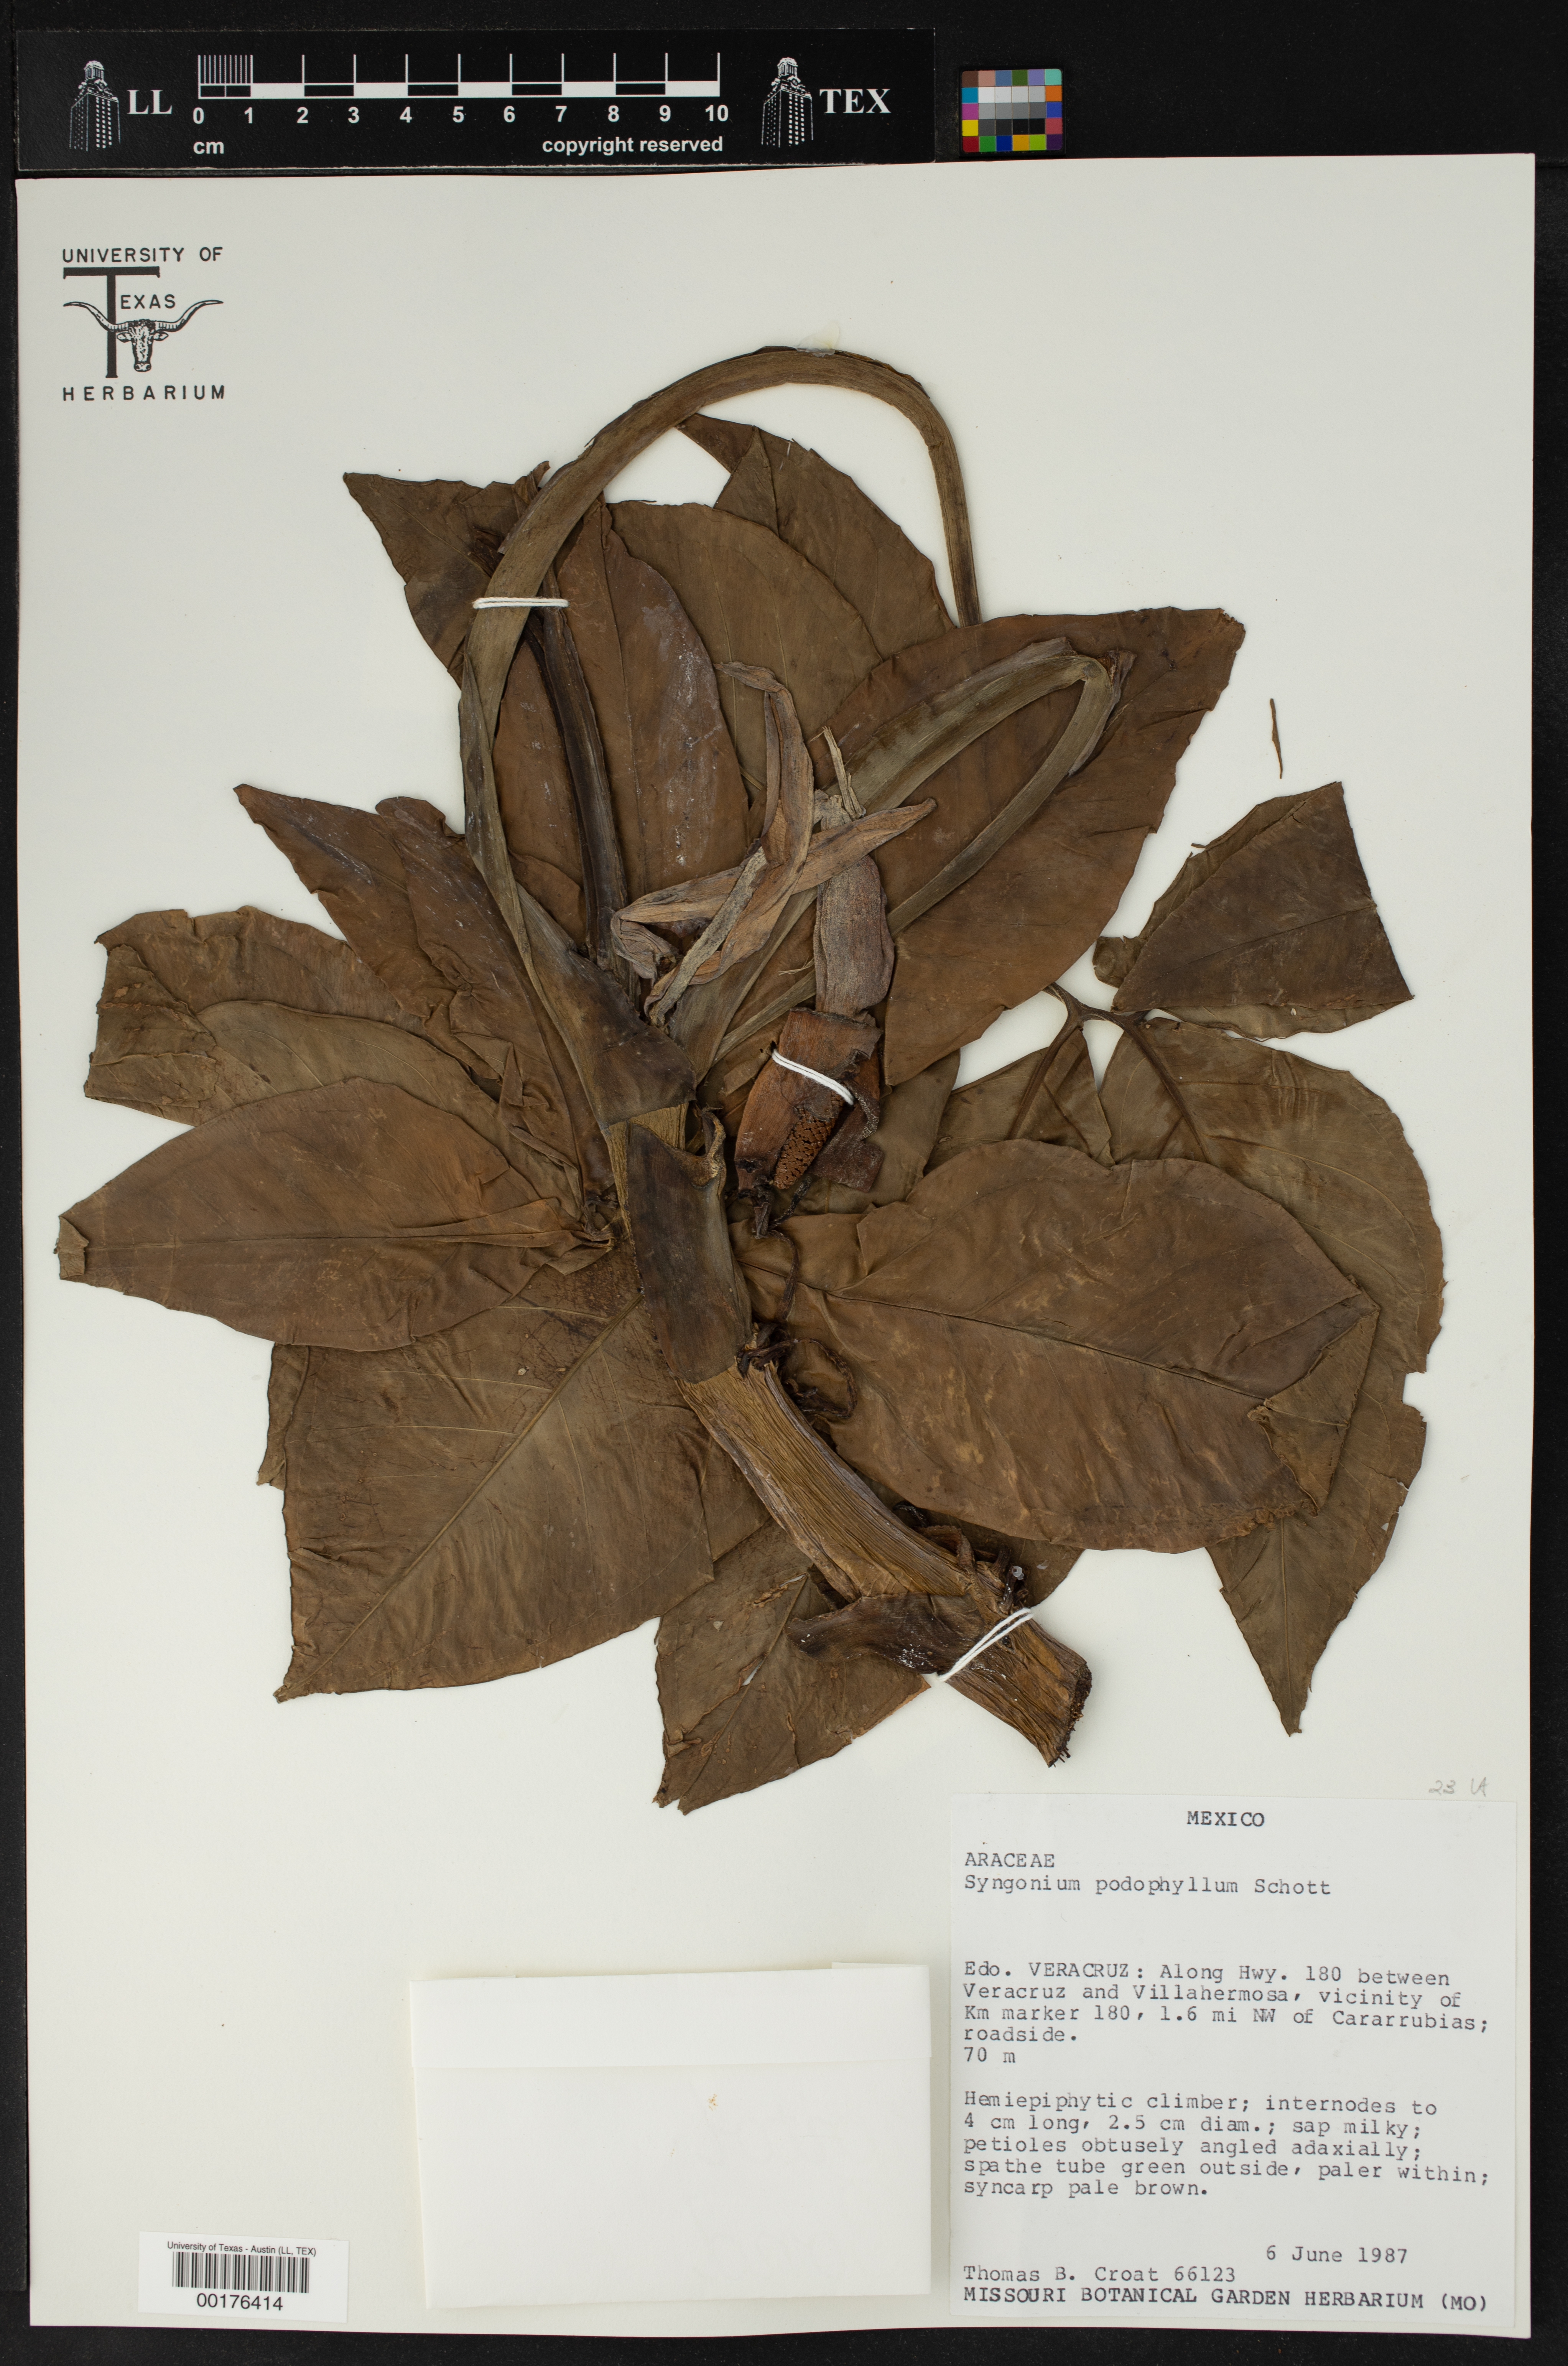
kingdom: Plantae
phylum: Tracheophyta
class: Liliopsida
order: Alismatales
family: Araceae
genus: Syngonium
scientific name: Syngonium podophyllum
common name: American evergreen
